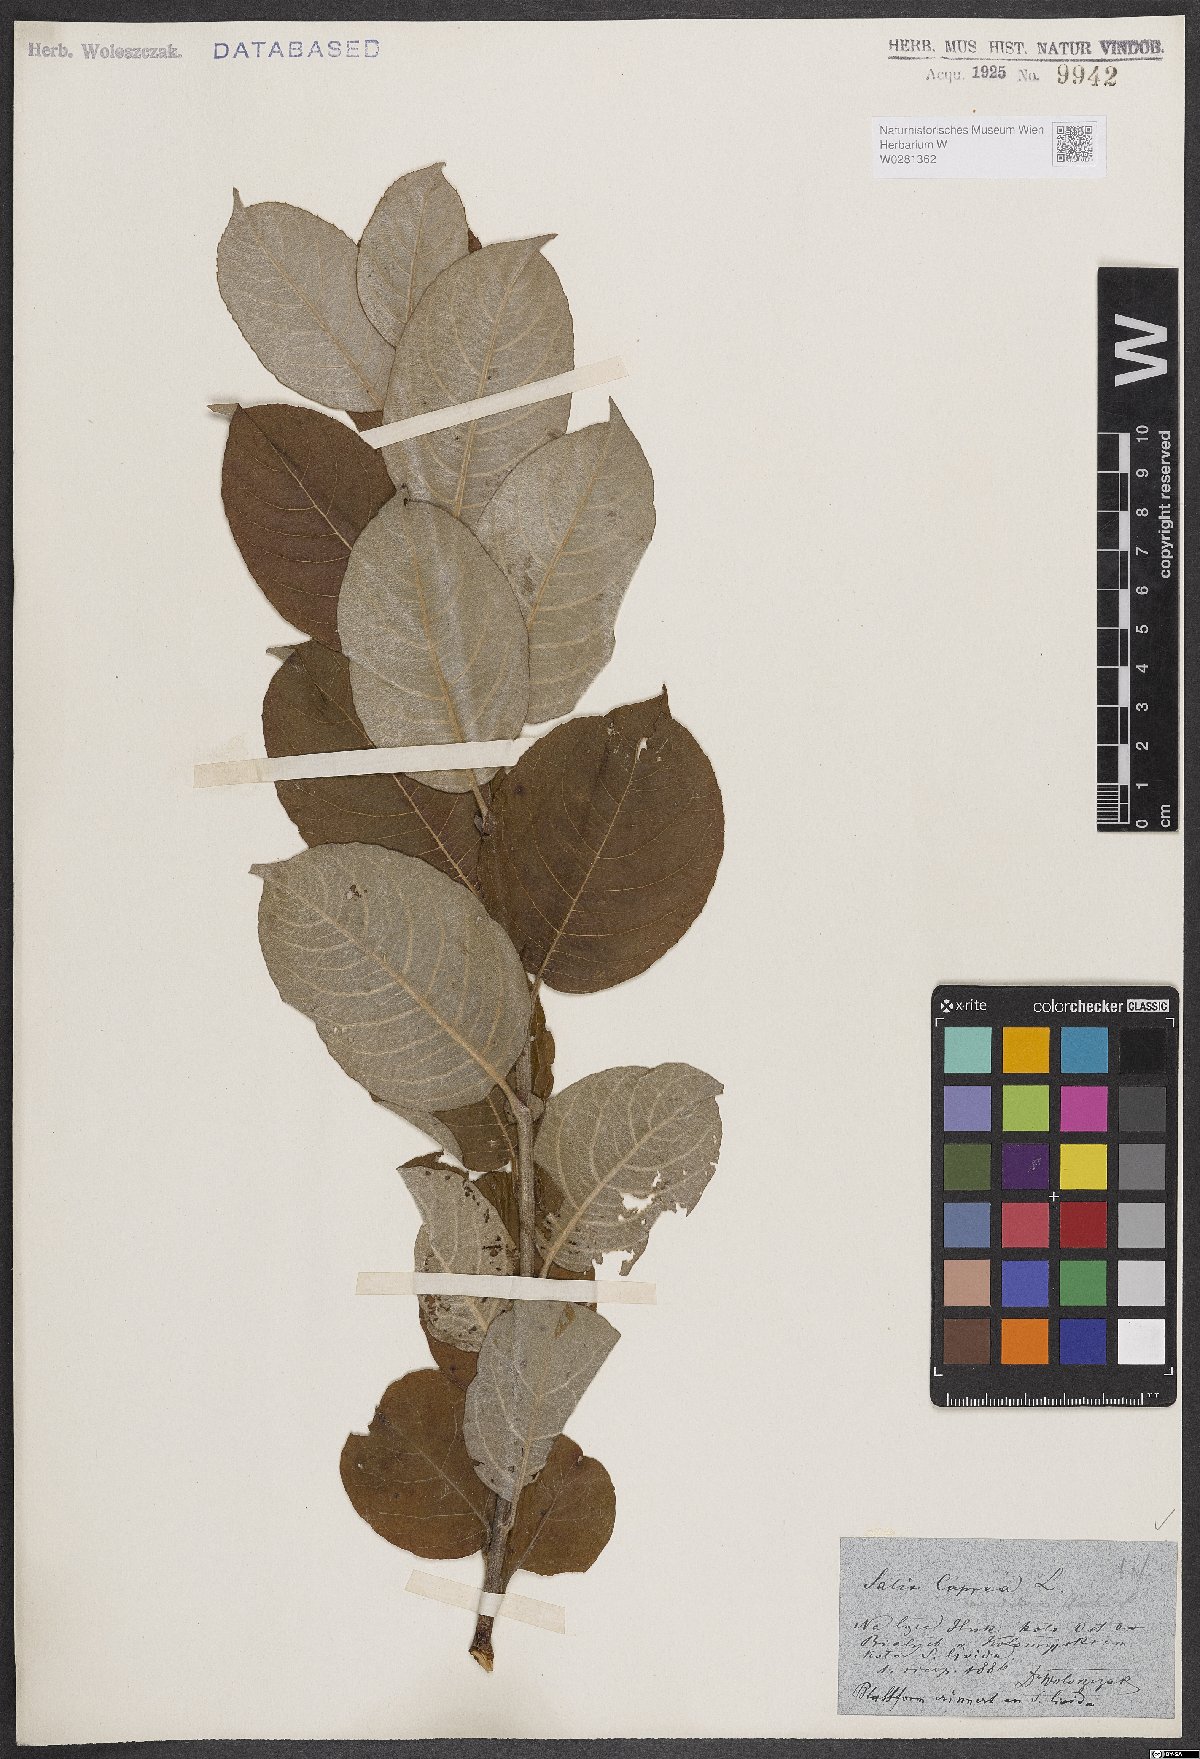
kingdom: Plantae
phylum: Tracheophyta
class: Magnoliopsida
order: Malpighiales
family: Salicaceae
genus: Salix
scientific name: Salix caprea
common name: Goat willow
